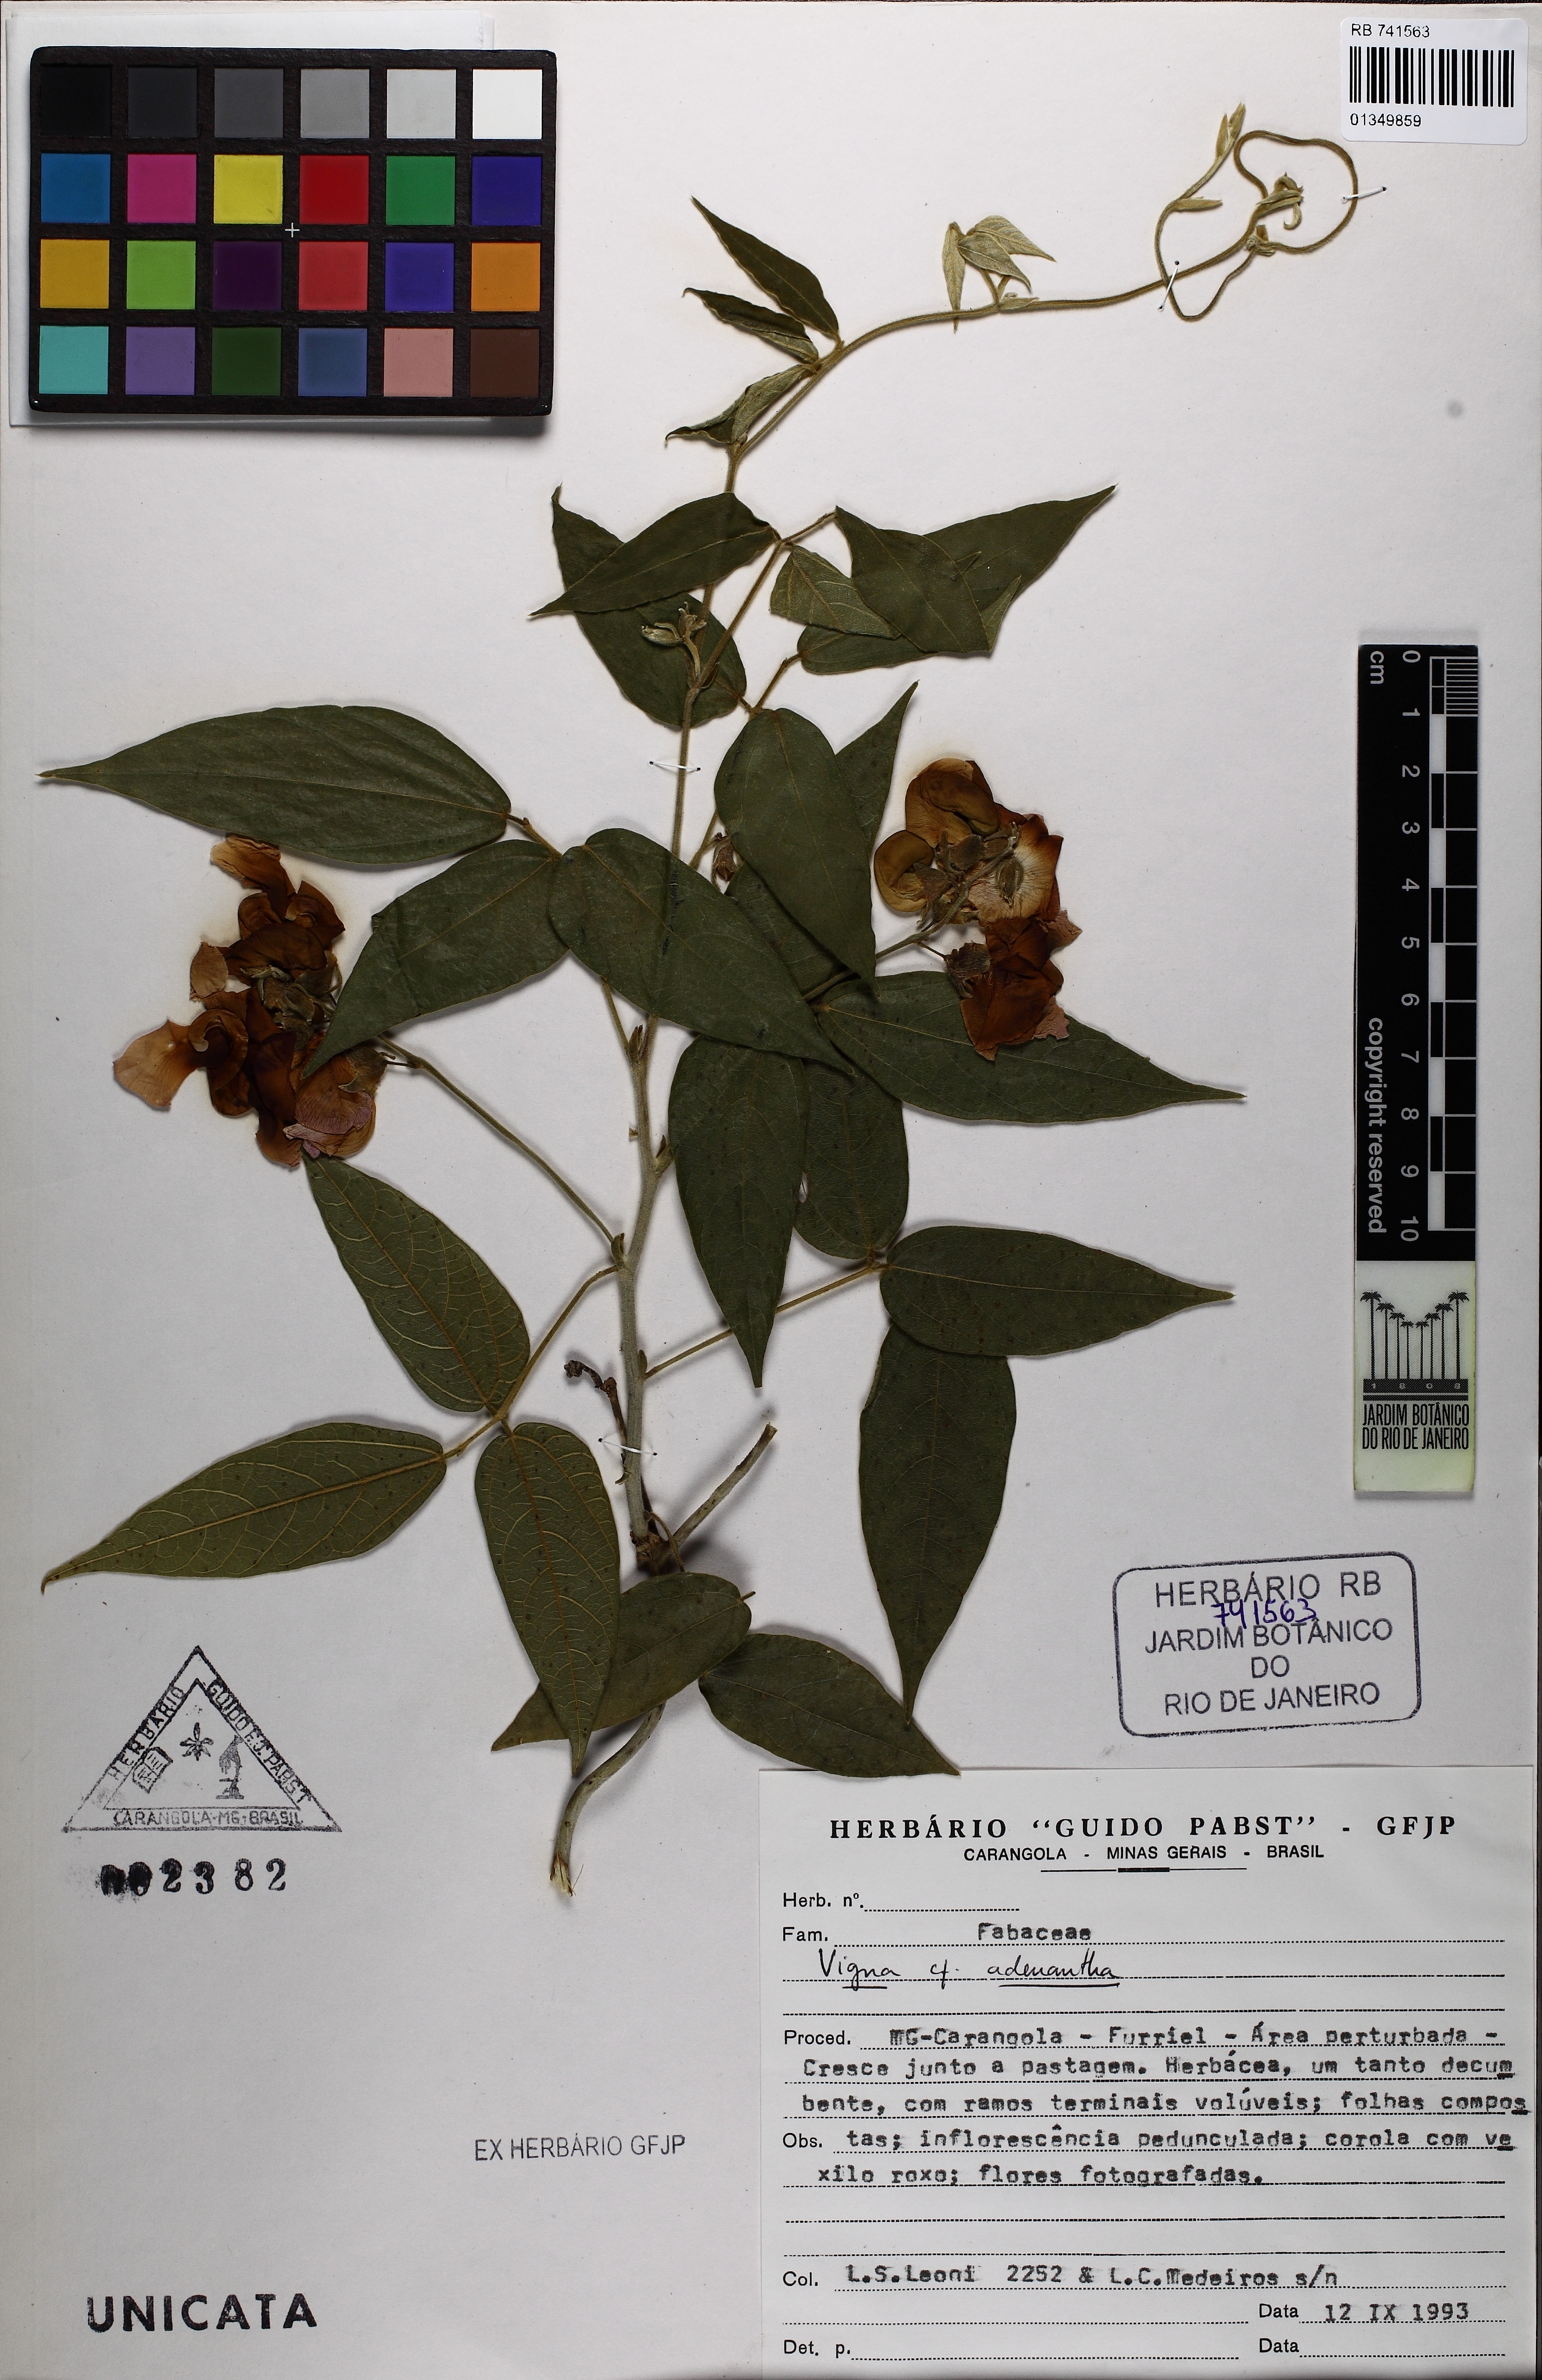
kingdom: Plantae
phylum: Tracheophyta
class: Magnoliopsida
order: Fabales
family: Fabaceae
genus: Sigmoidotropis
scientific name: Sigmoidotropis
